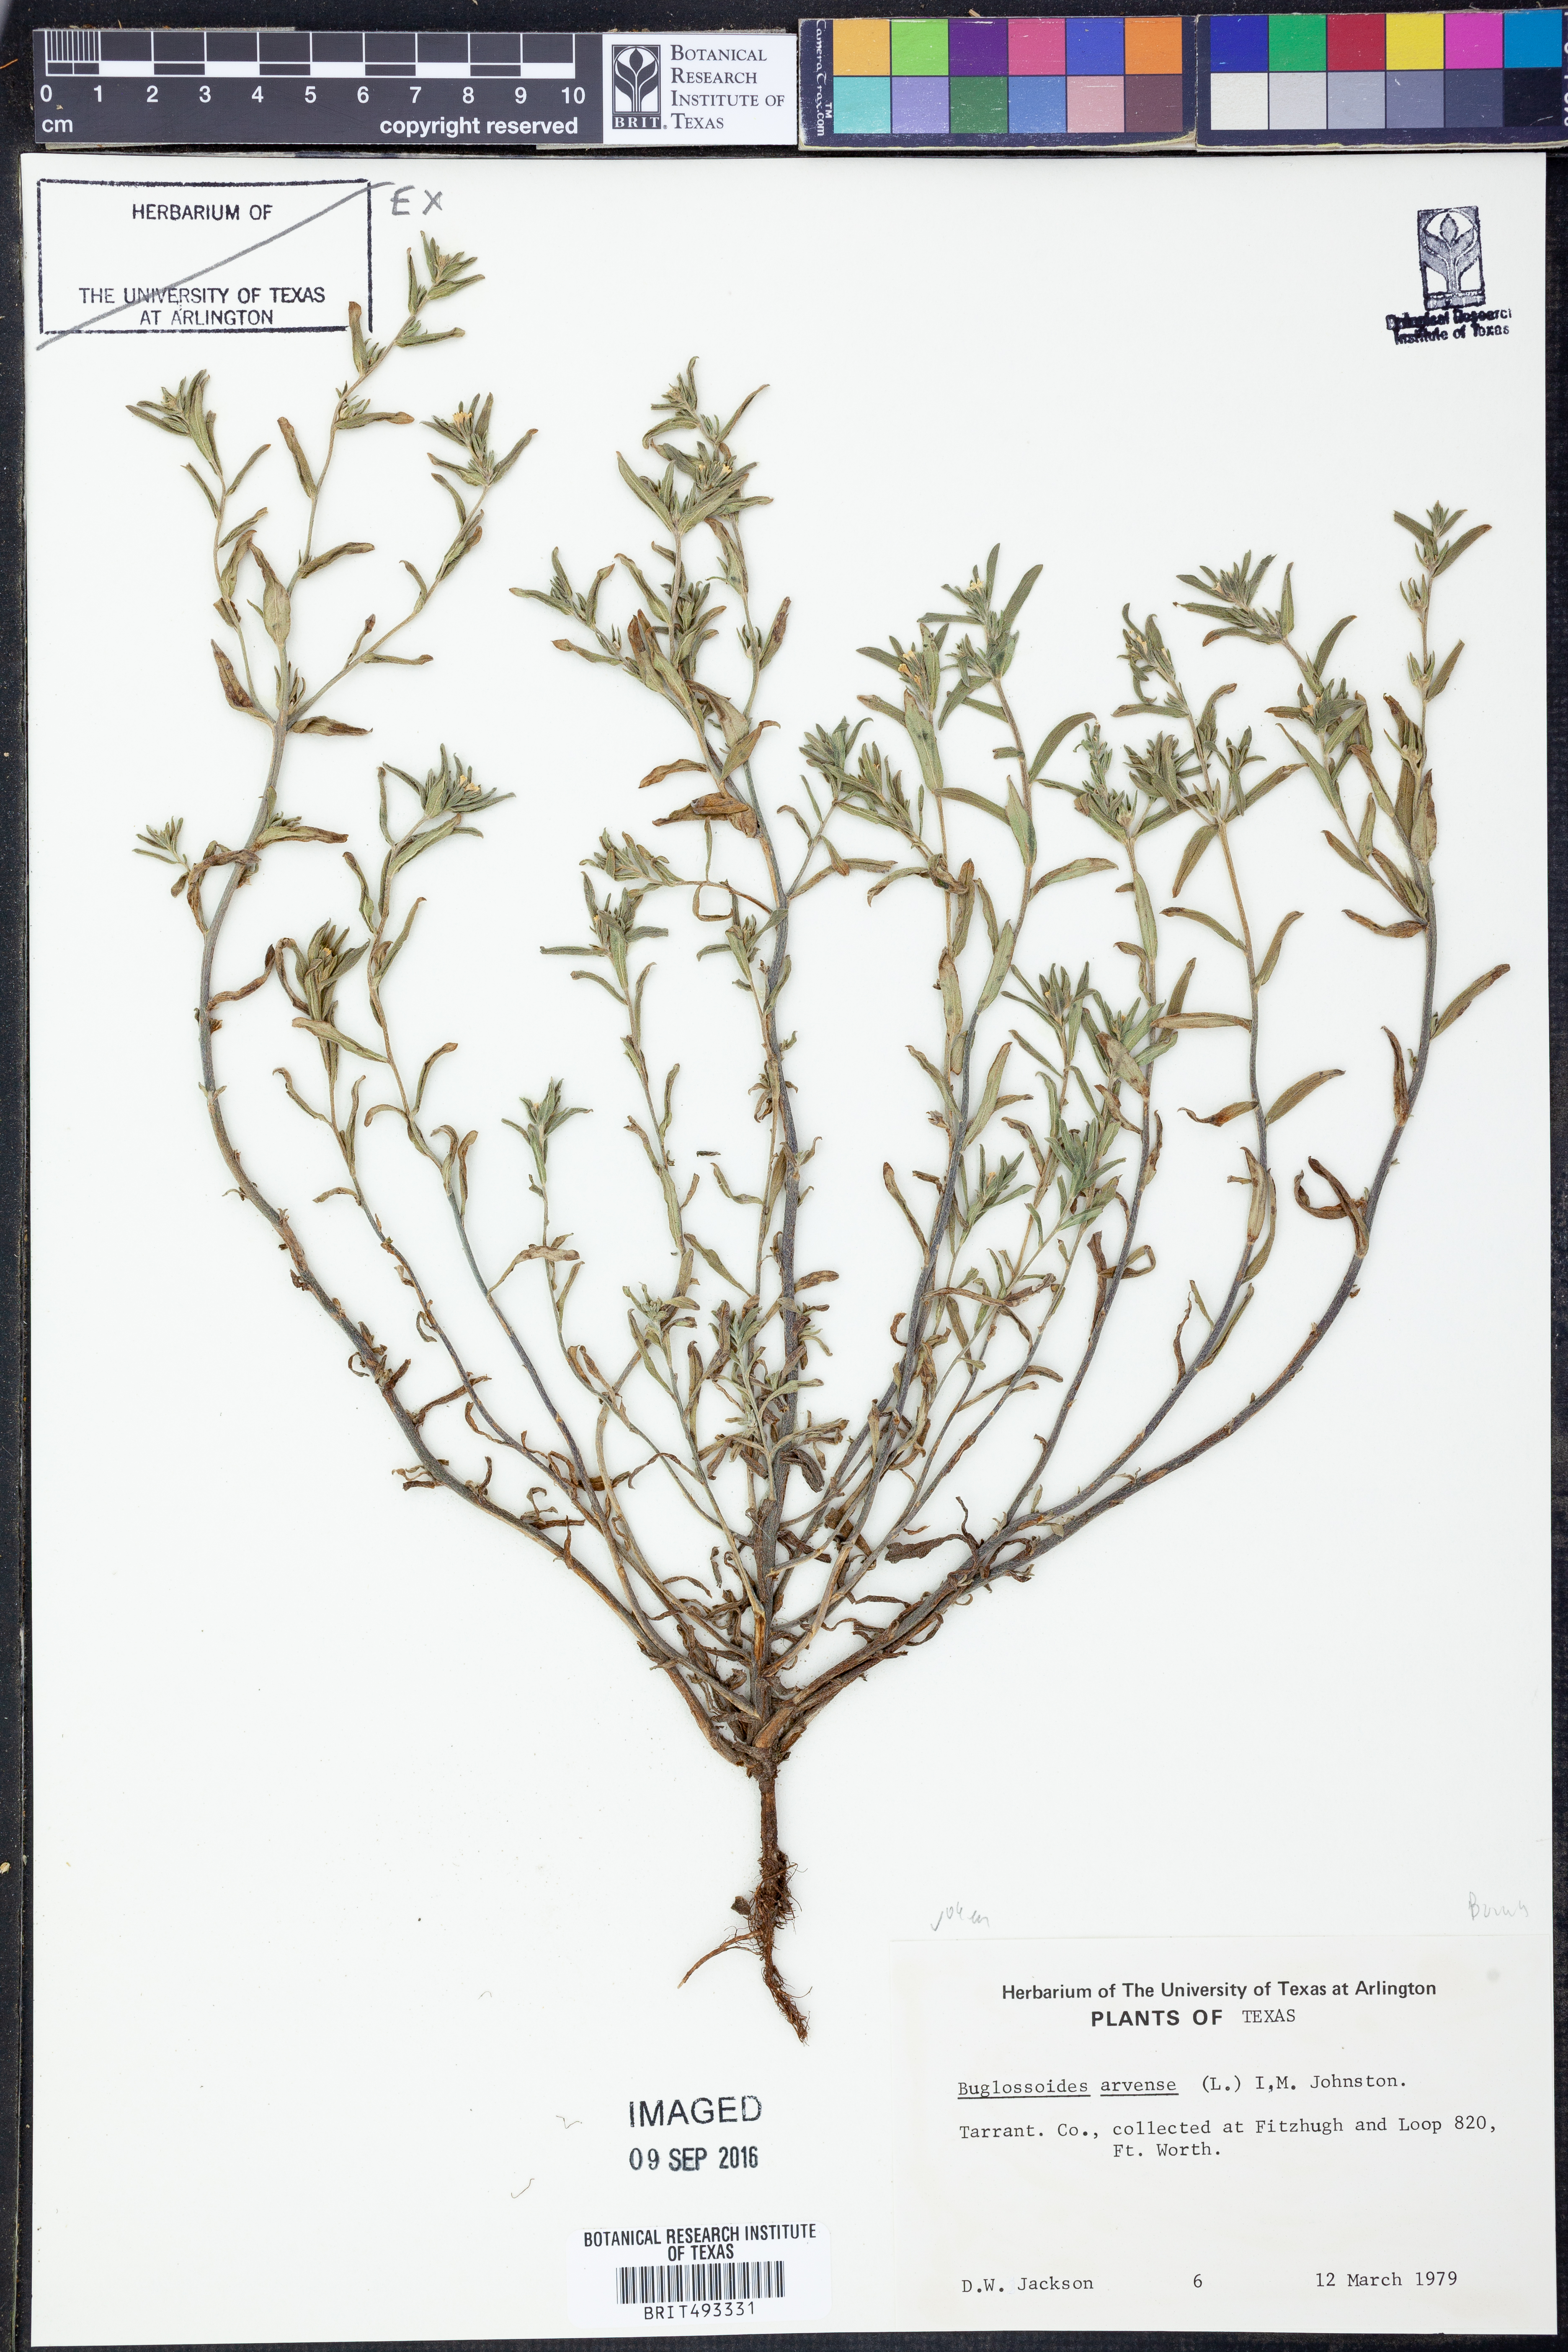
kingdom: Plantae
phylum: Tracheophyta
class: Magnoliopsida
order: Boraginales
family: Boraginaceae
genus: Buglossoides
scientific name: Buglossoides arvensis
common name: Corn gromwell
